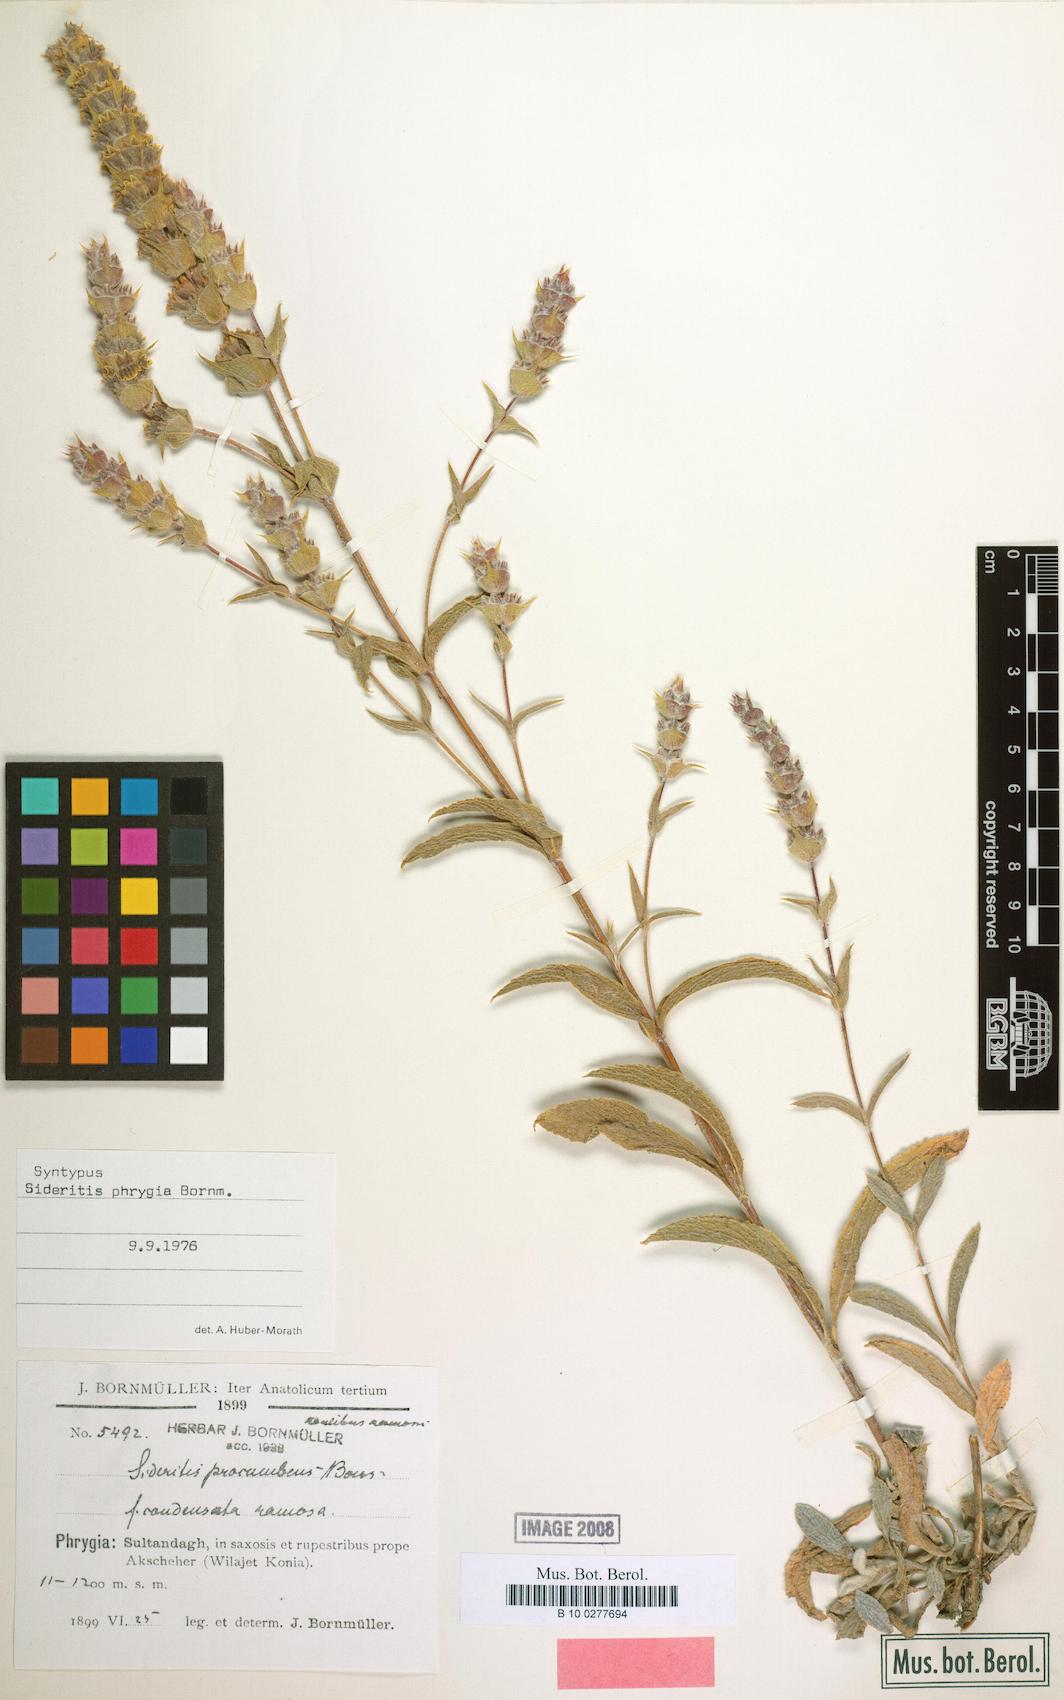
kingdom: Plantae
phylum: Tracheophyta
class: Magnoliopsida
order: Lamiales
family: Lamiaceae
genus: Sideritis
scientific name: Sideritis phrygia
